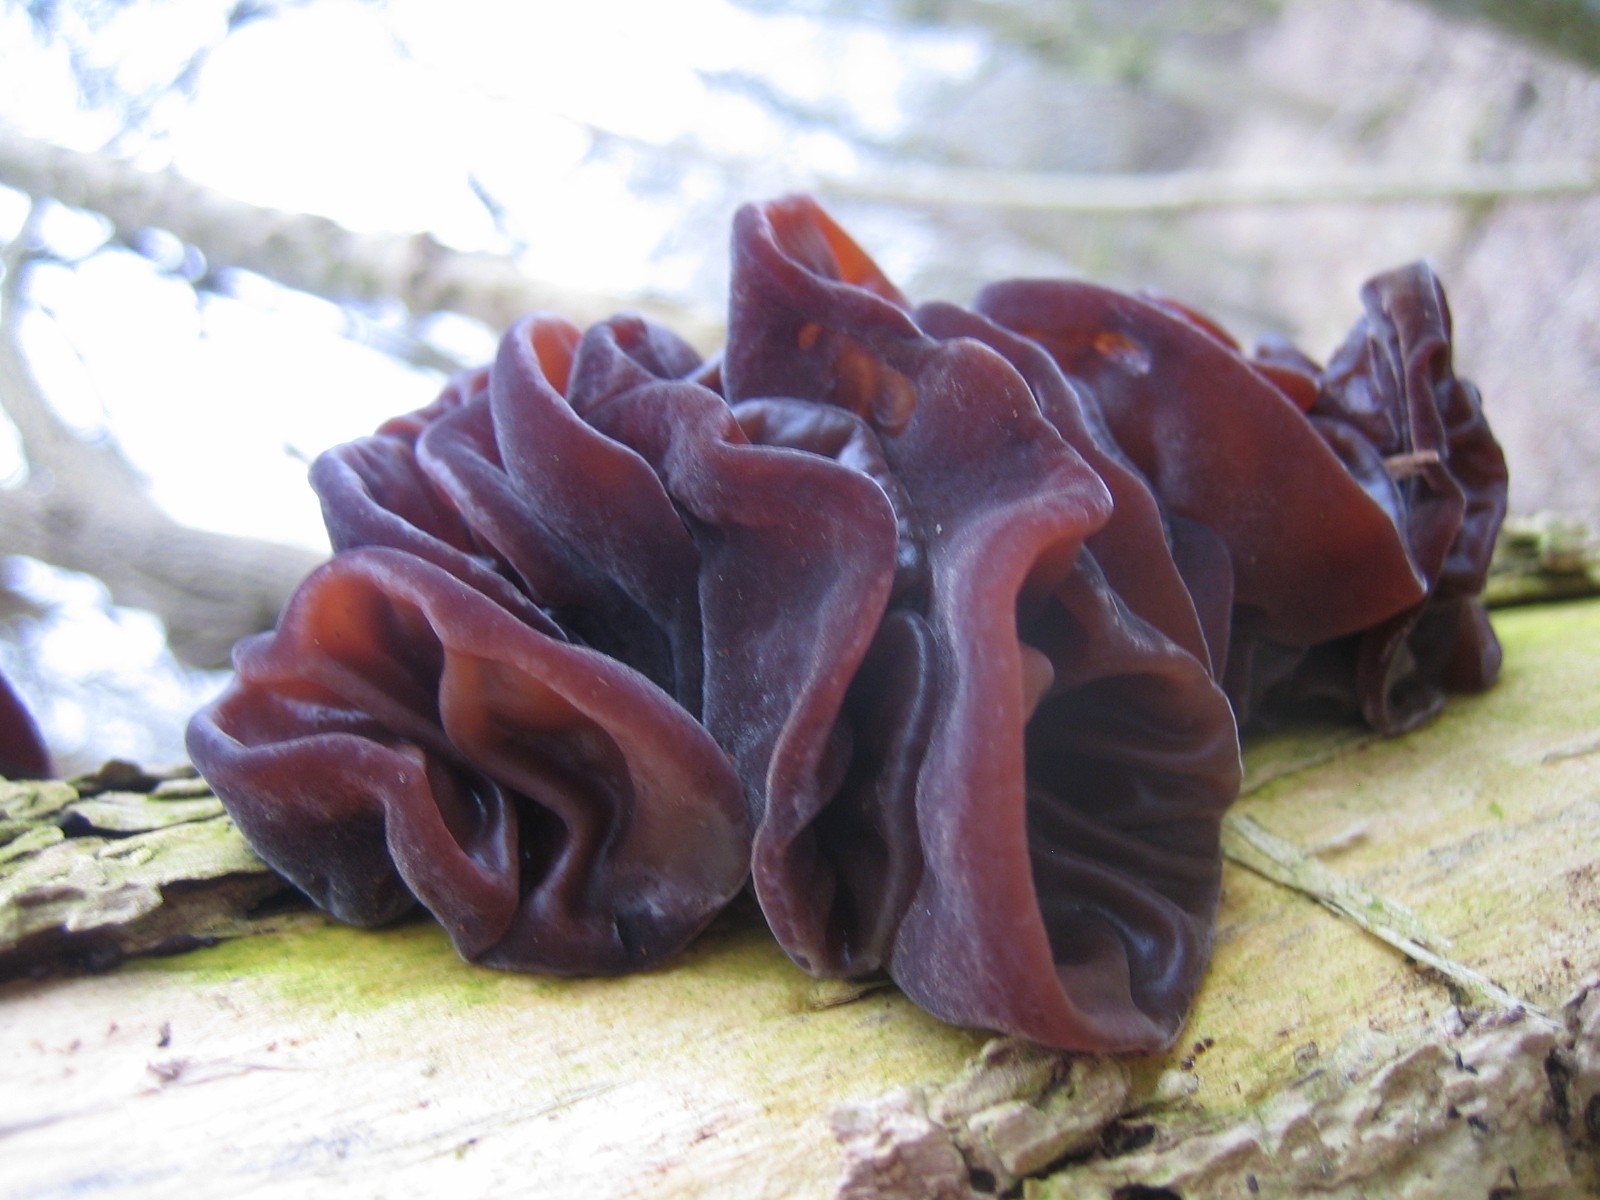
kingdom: Fungi
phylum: Basidiomycota
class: Agaricomycetes
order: Auriculariales
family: Auriculariaceae
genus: Auricularia
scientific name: Auricularia auricula-judae
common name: almindelig judasøre
